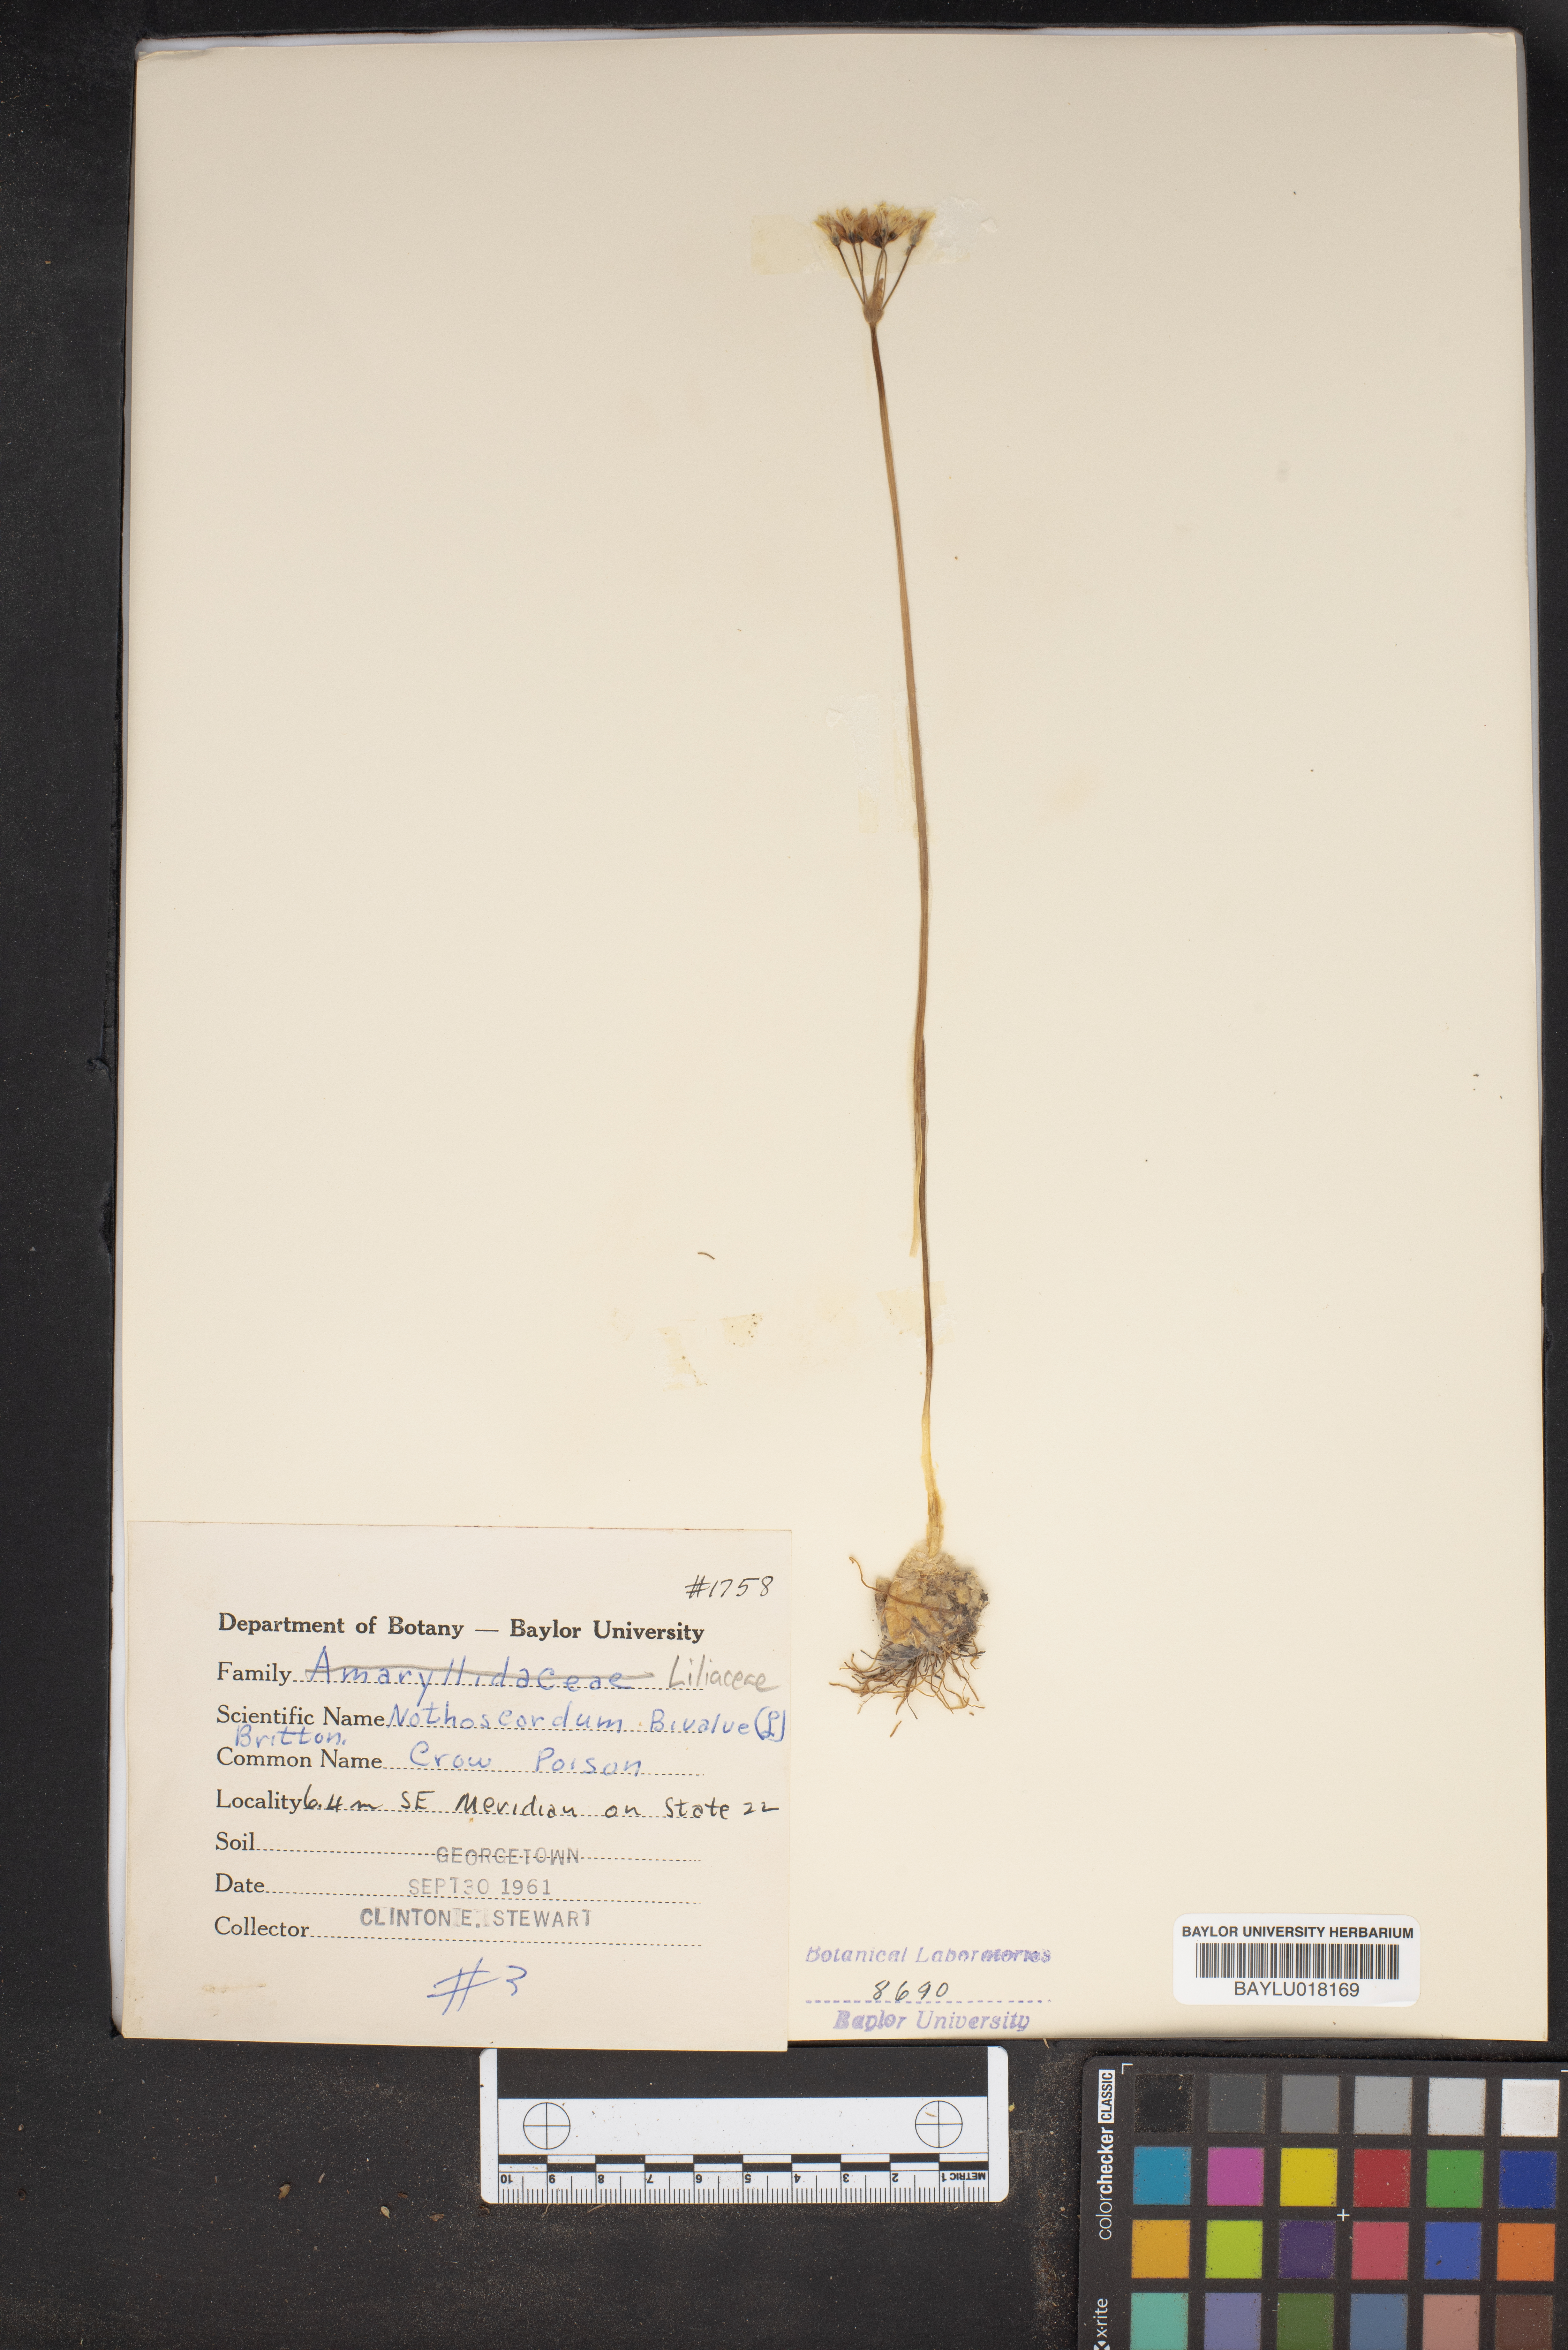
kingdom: Plantae
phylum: Tracheophyta
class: Liliopsida
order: Asparagales
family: Amaryllidaceae
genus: Nothoscordum
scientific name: Nothoscordum bivalve
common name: Crow-poison
